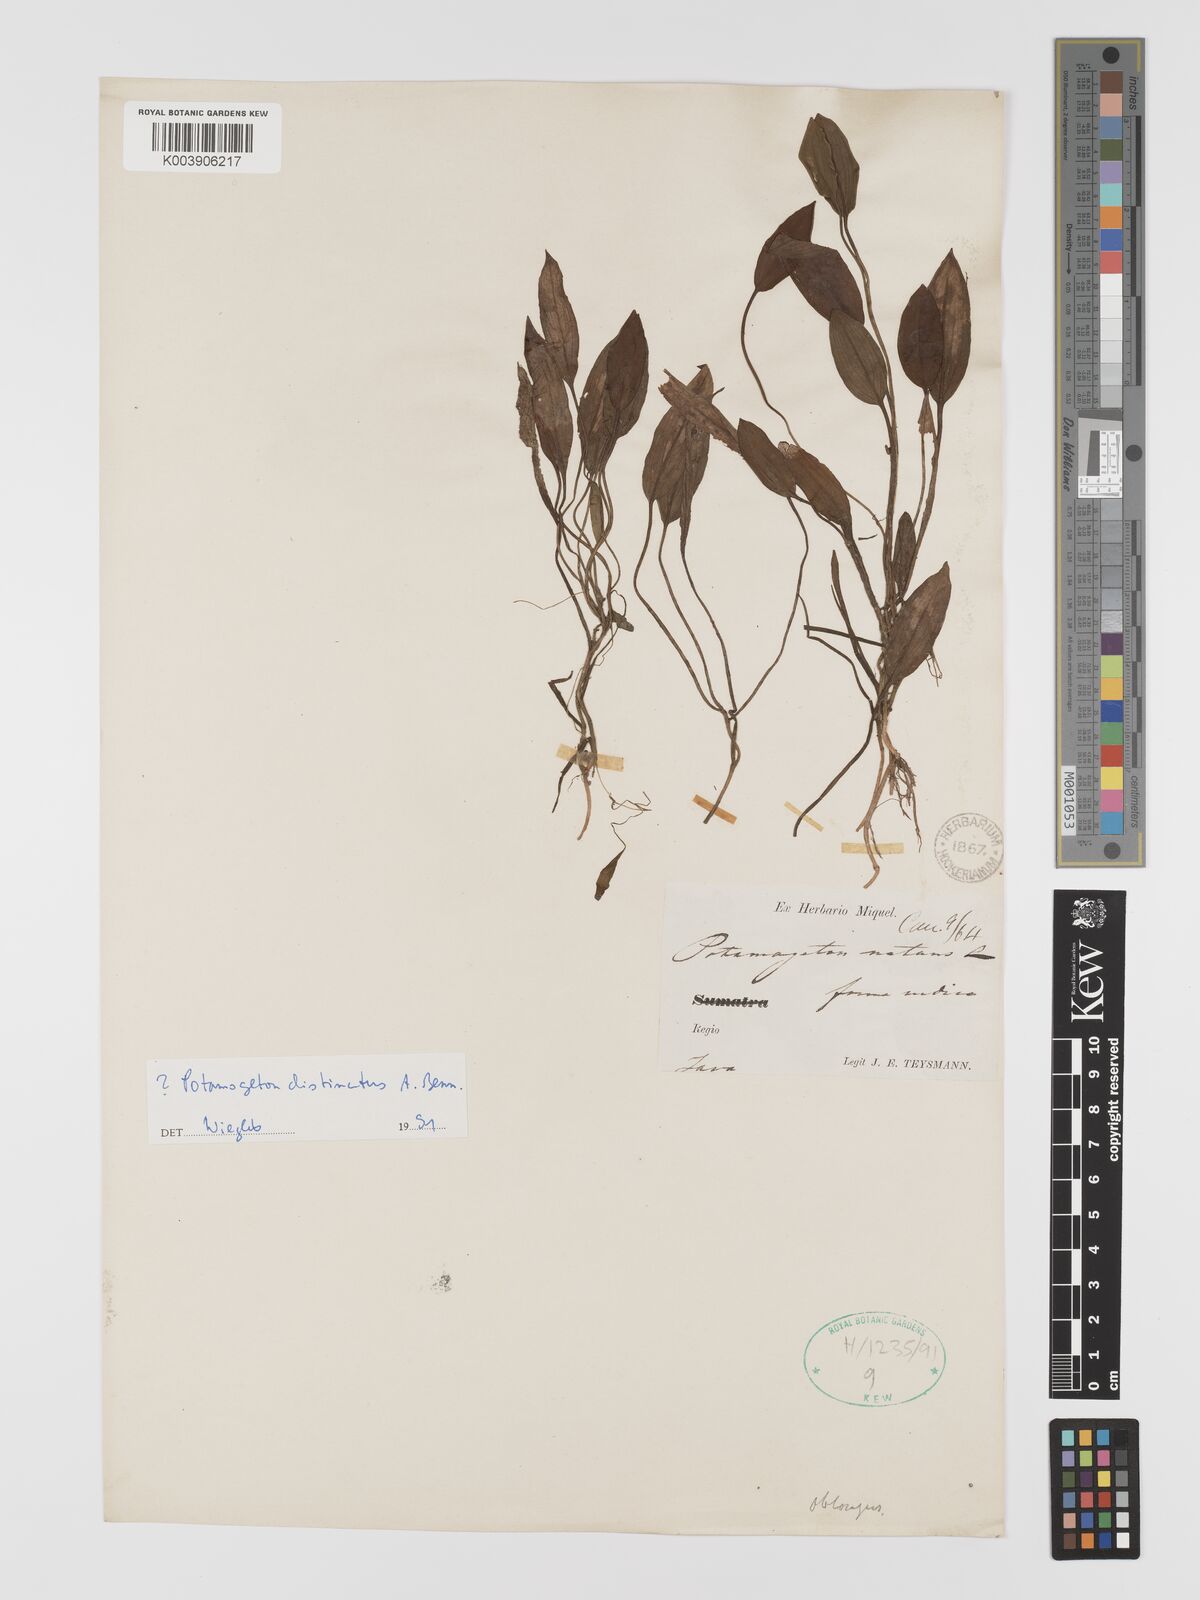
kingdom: Plantae
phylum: Tracheophyta
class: Liliopsida
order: Alismatales
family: Potamogetonaceae
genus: Potamogeton
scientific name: Potamogeton distinctus
